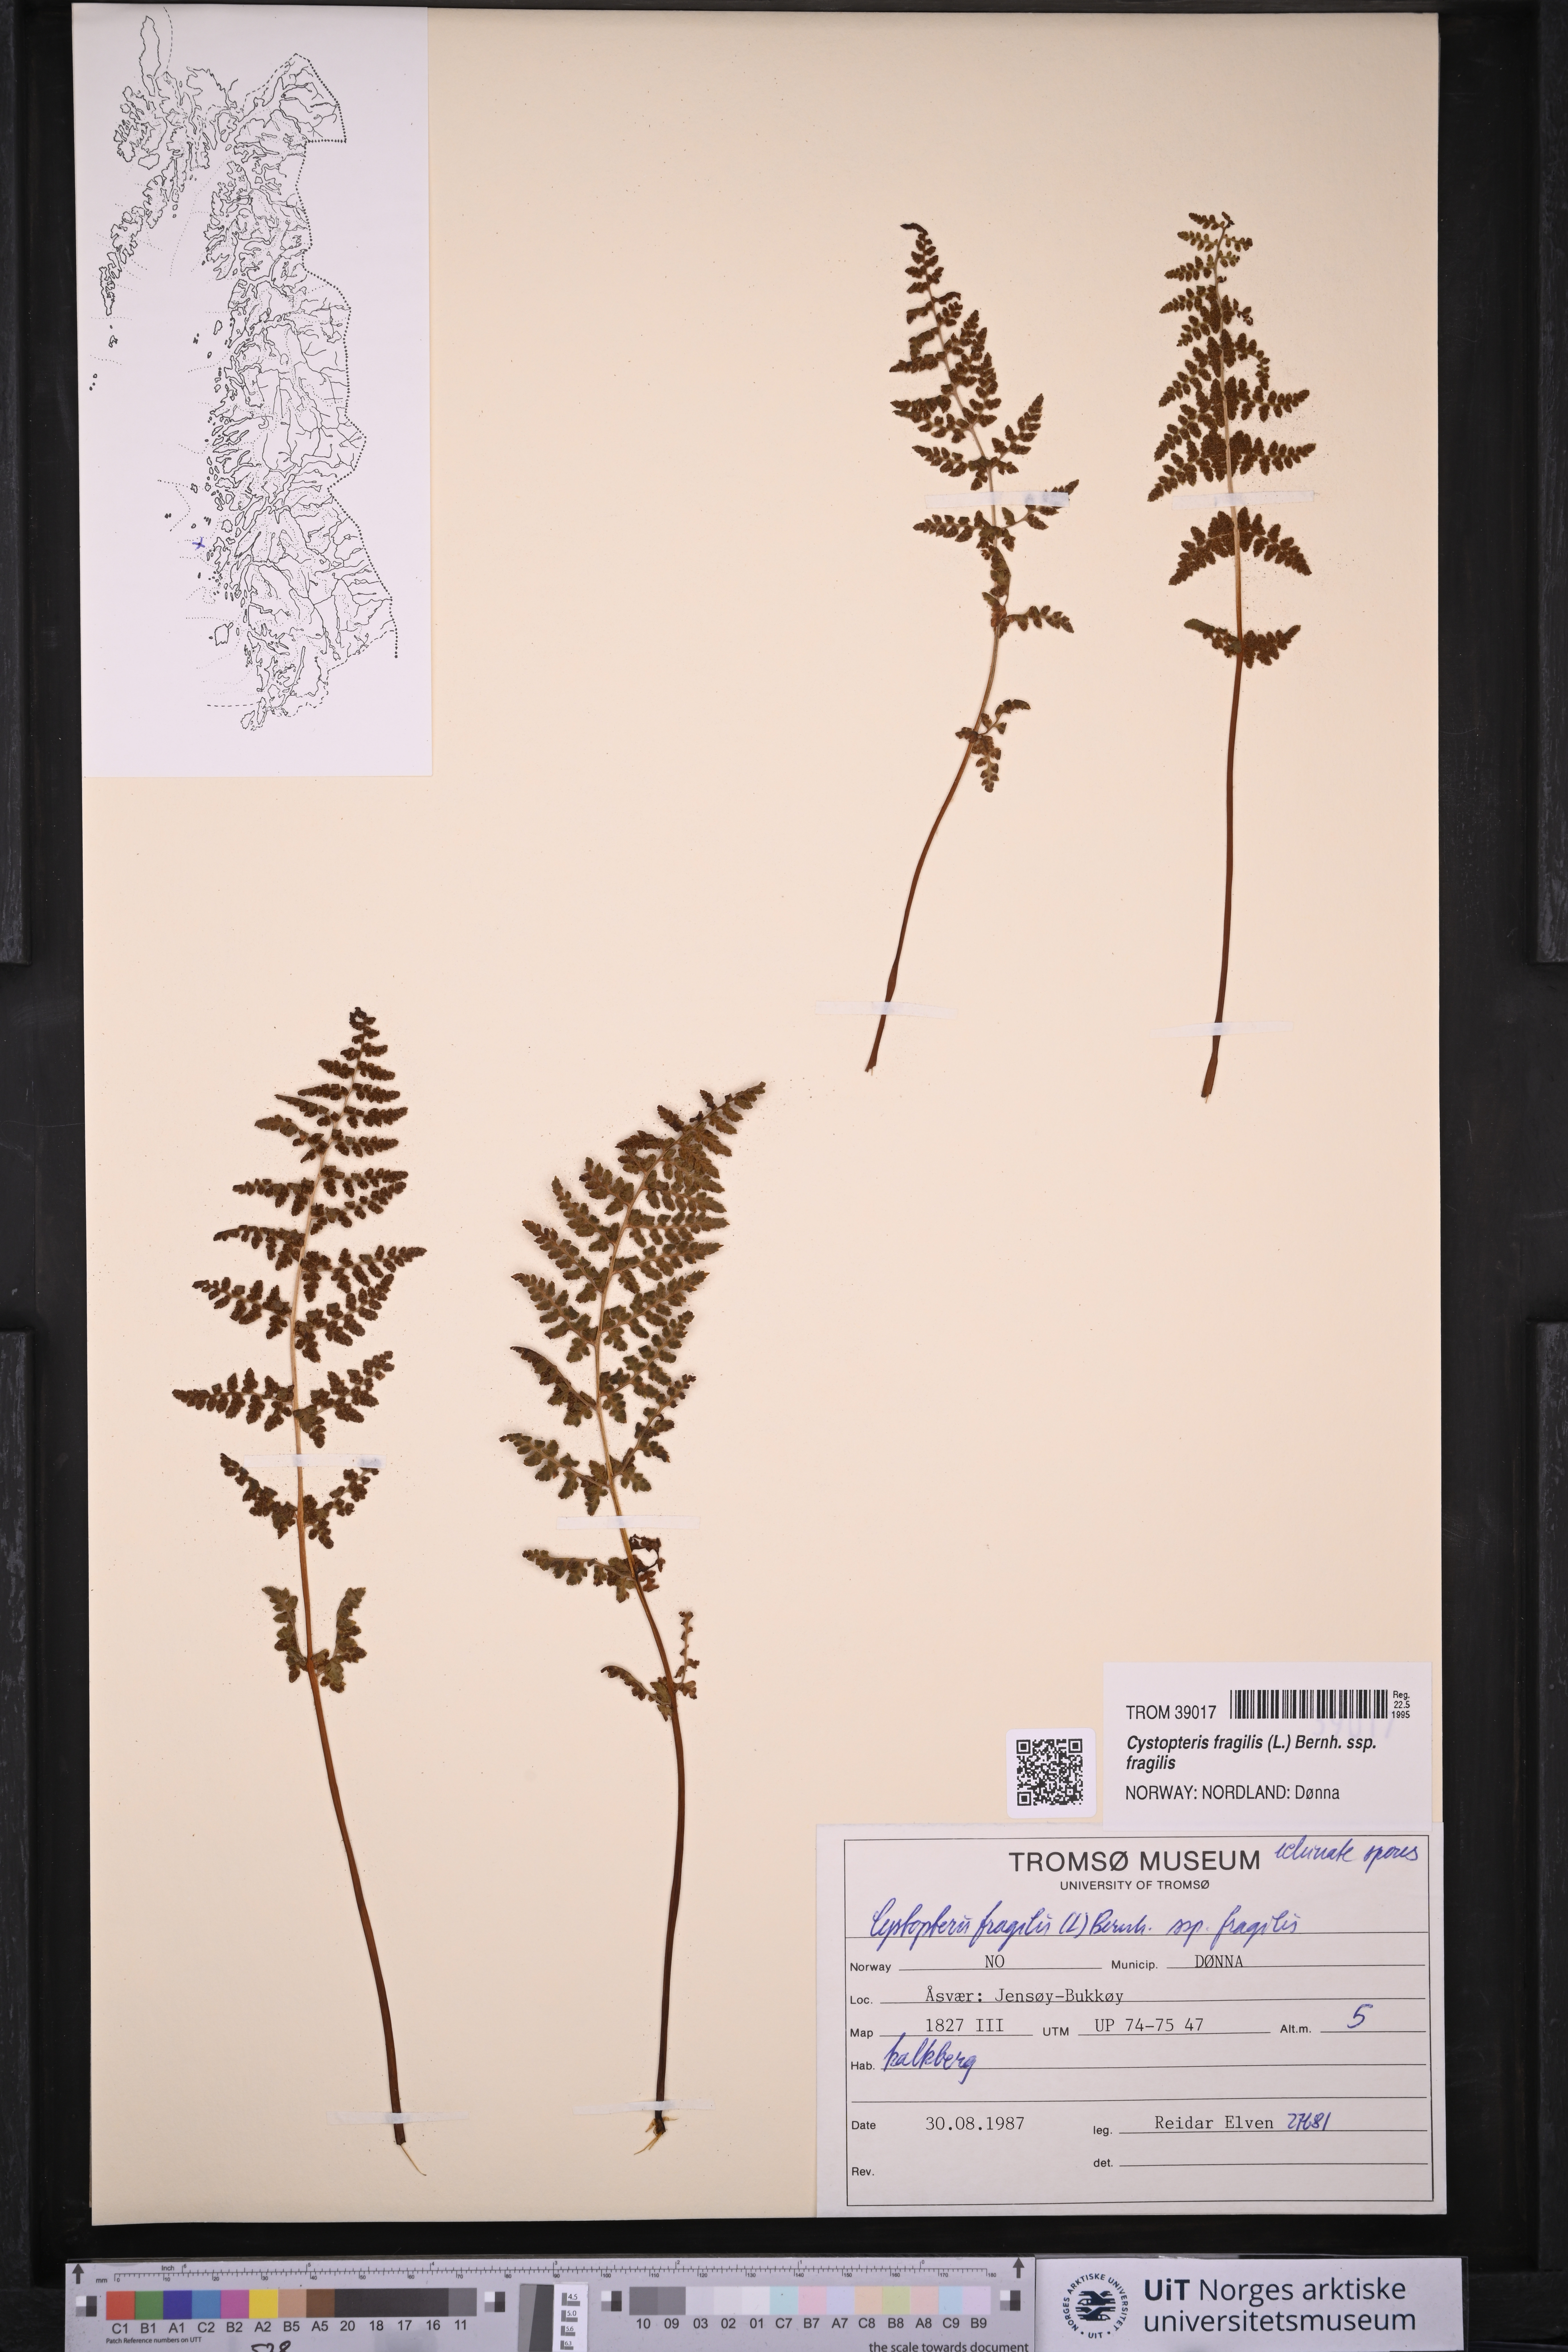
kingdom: Plantae
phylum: Tracheophyta
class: Polypodiopsida
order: Polypodiales
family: Cystopteridaceae
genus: Cystopteris
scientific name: Cystopteris fragilis
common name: Brittle bladder fern
